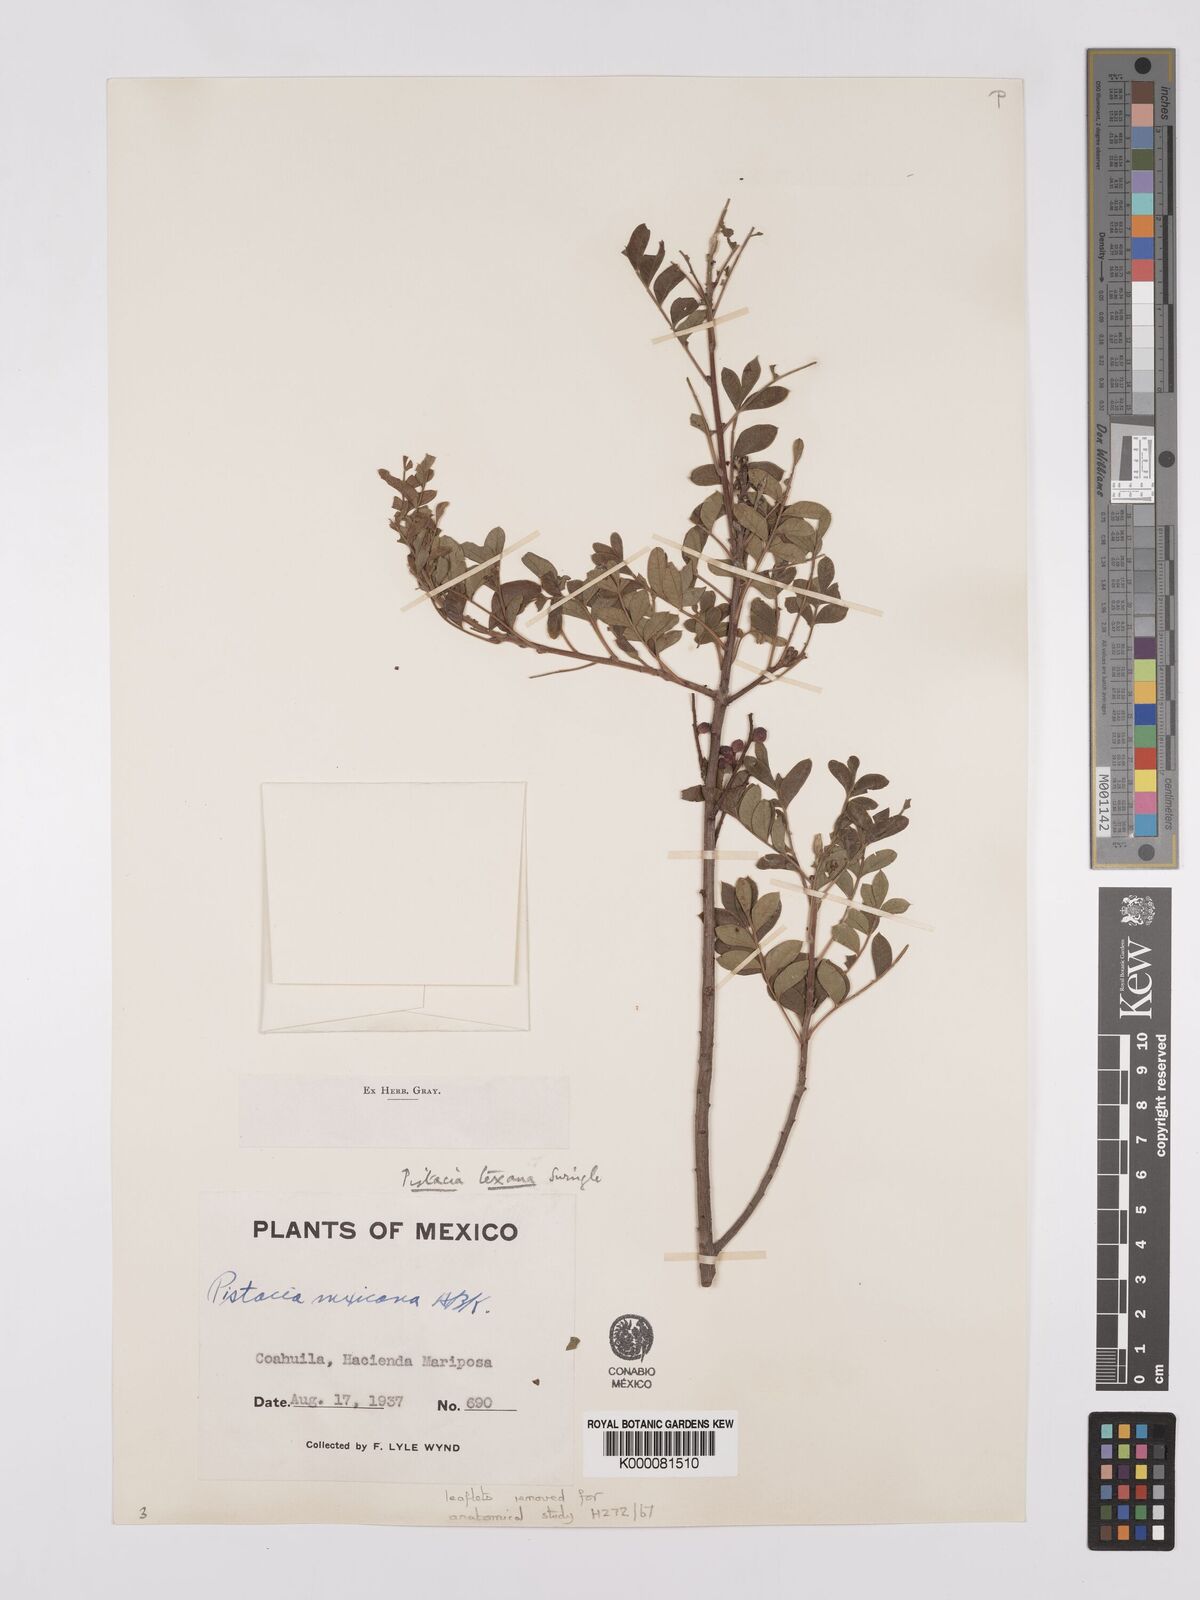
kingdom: Plantae
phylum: Tracheophyta
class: Magnoliopsida
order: Sapindales
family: Anacardiaceae
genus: Pistacia
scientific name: Pistacia
